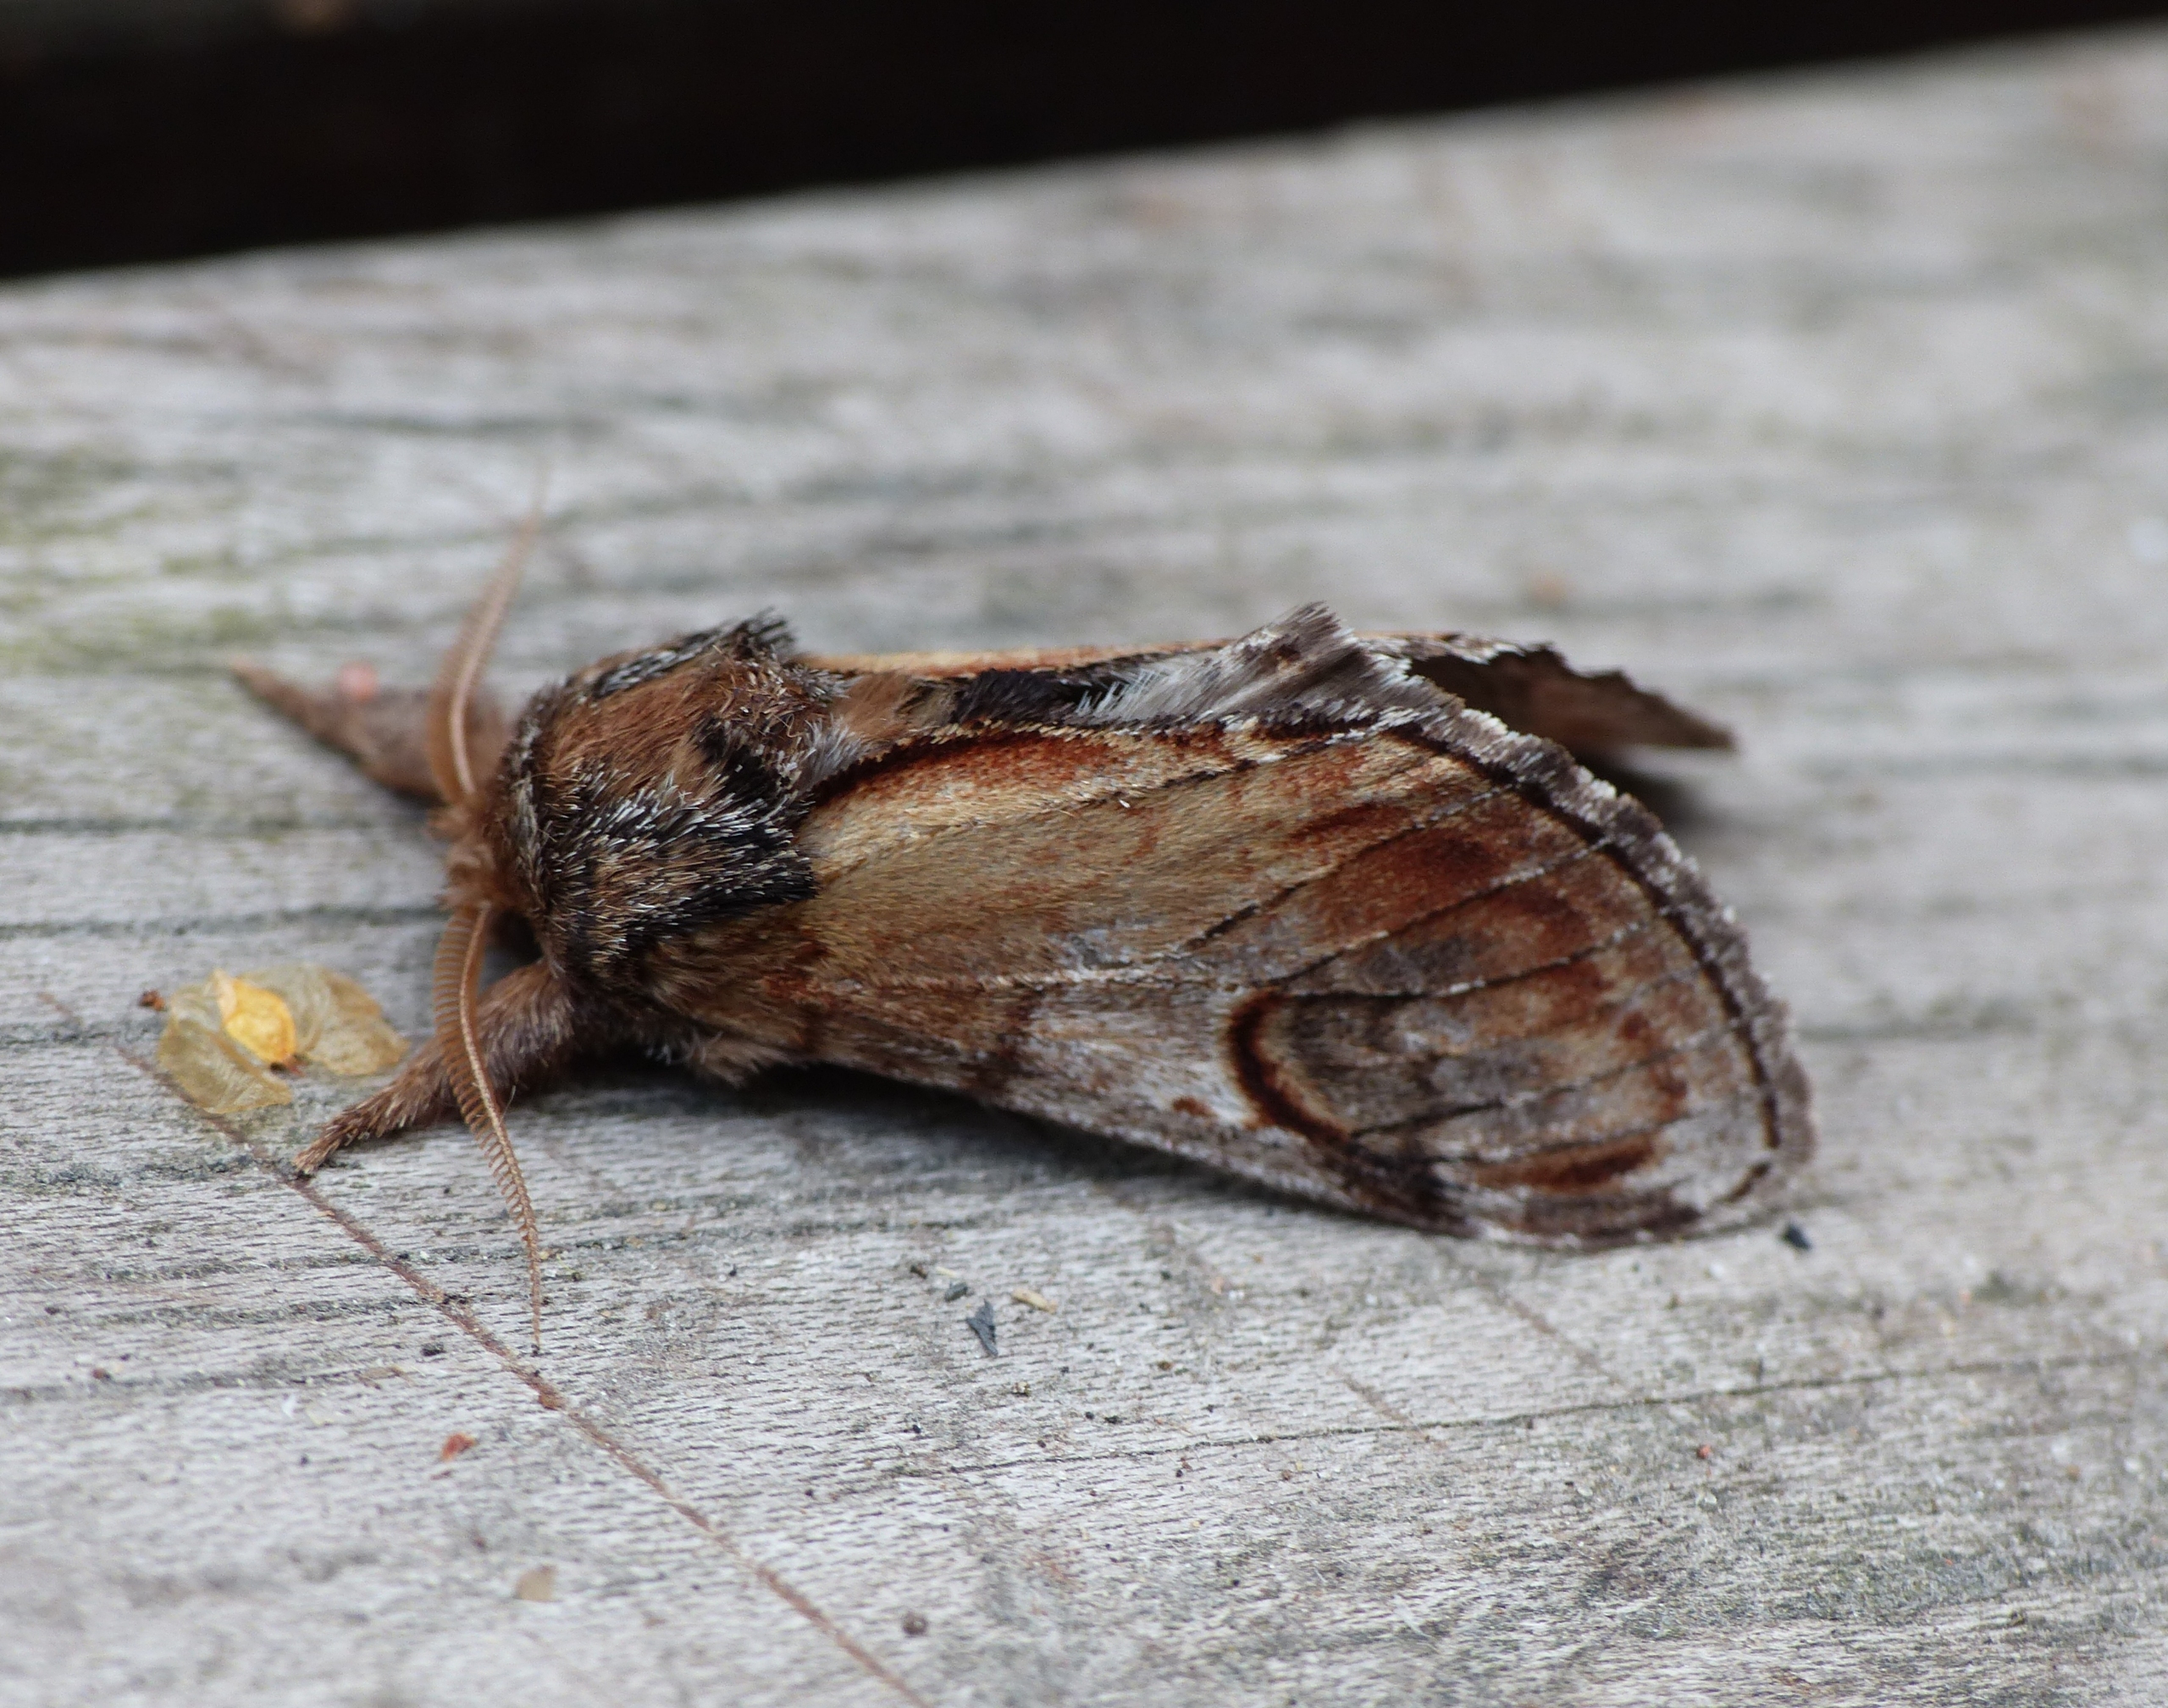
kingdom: Animalia
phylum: Arthropoda
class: Insecta
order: Lepidoptera
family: Notodontidae
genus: Notodonta
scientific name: Notodonta ziczac
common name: Zigzagspinder
